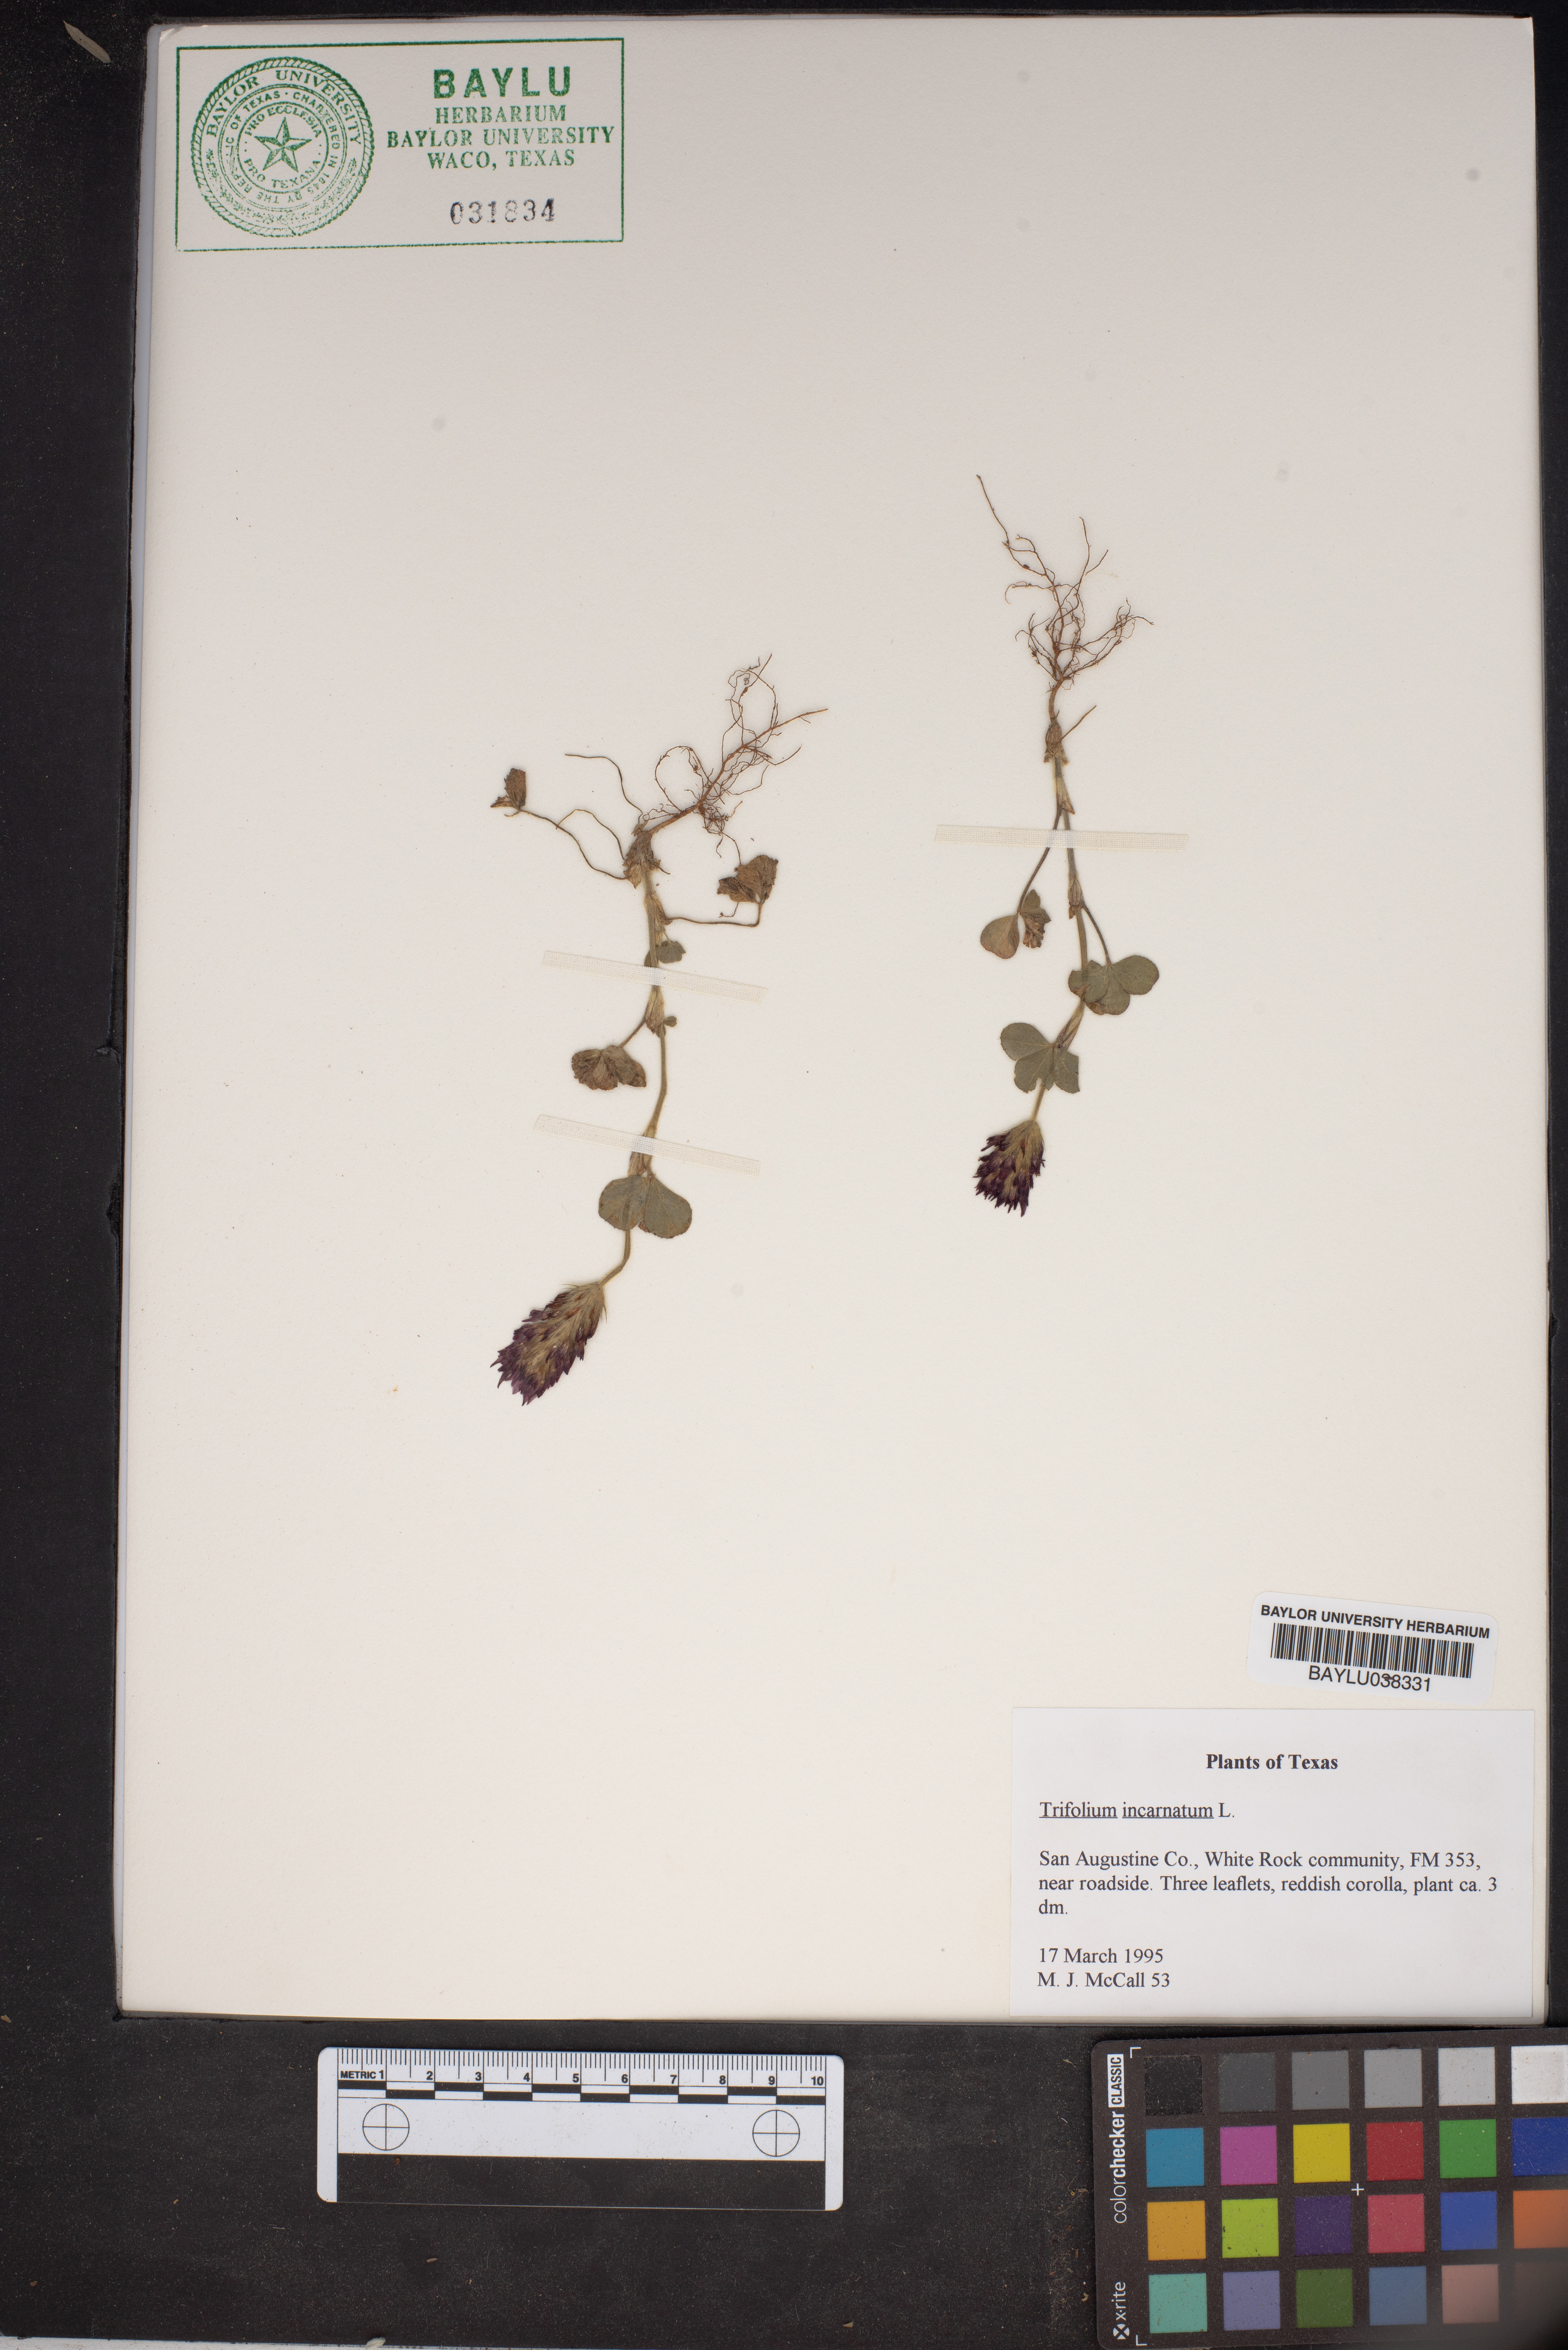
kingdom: Plantae
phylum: Tracheophyta
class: Magnoliopsida
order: Fabales
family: Fabaceae
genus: Trifolium
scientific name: Trifolium incarnatum
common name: Crimson clover
